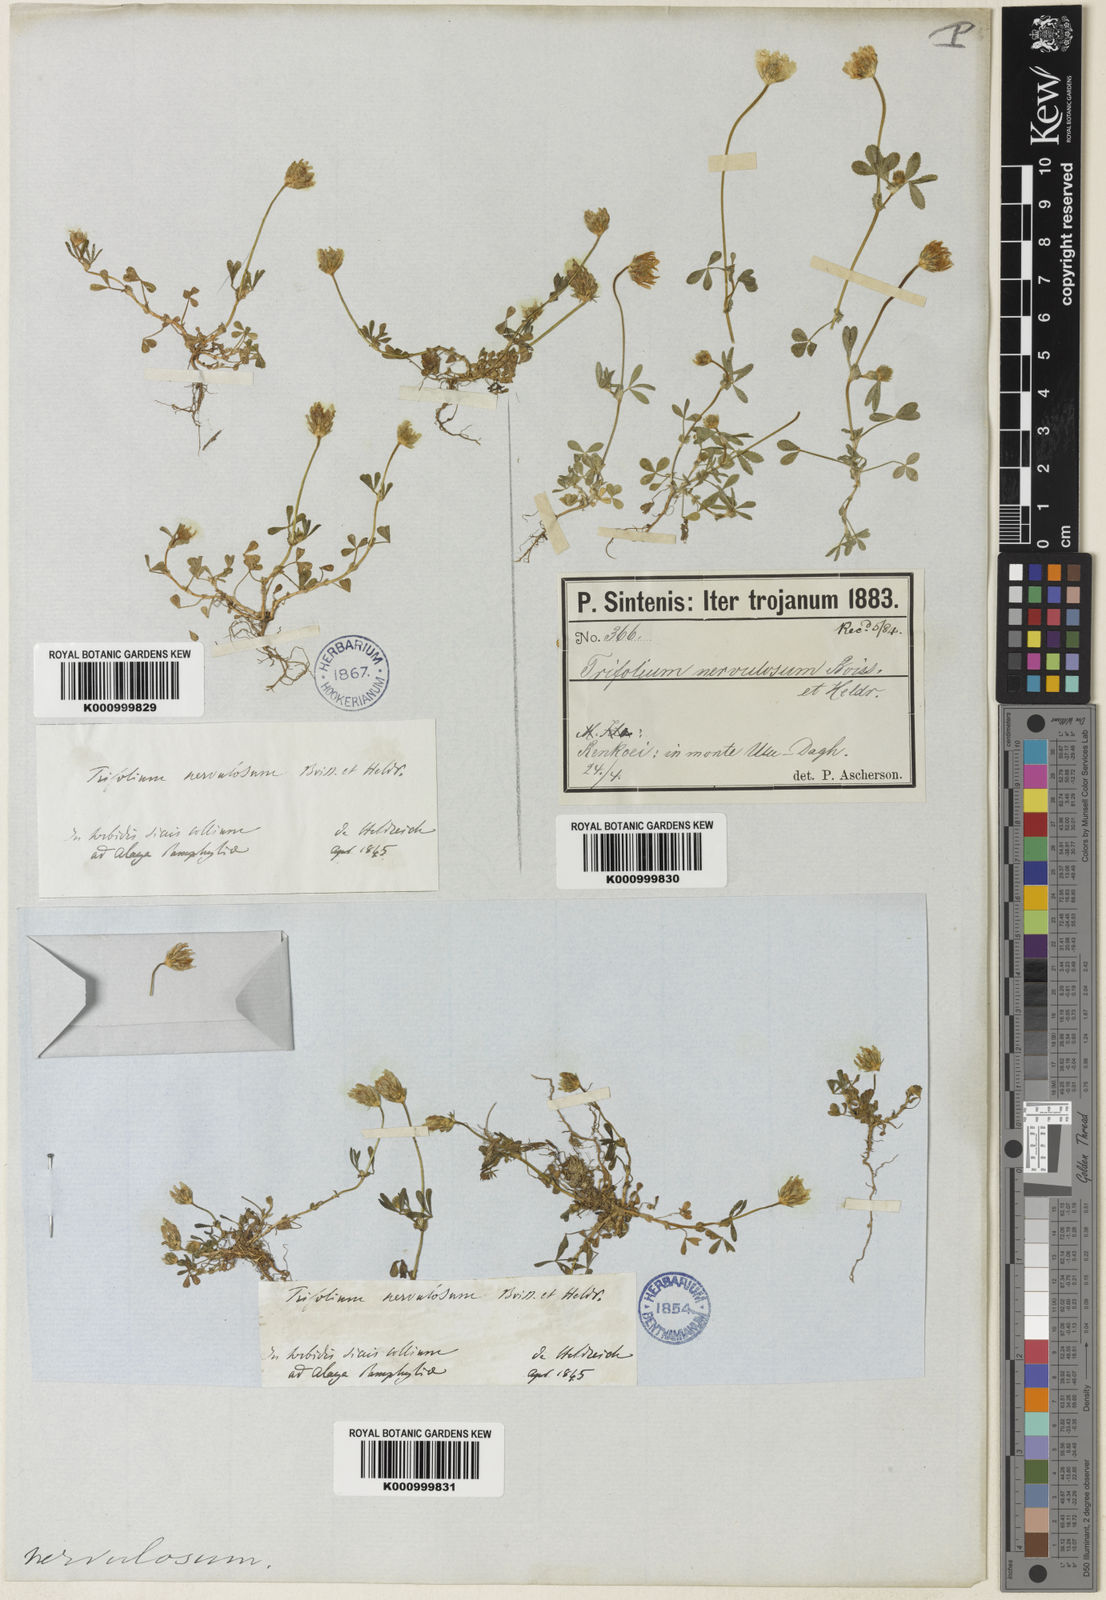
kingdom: Plantae
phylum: Tracheophyta
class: Magnoliopsida
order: Fabales
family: Fabaceae
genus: Trifolium
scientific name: Trifolium glanduliferum
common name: Glandular clover
